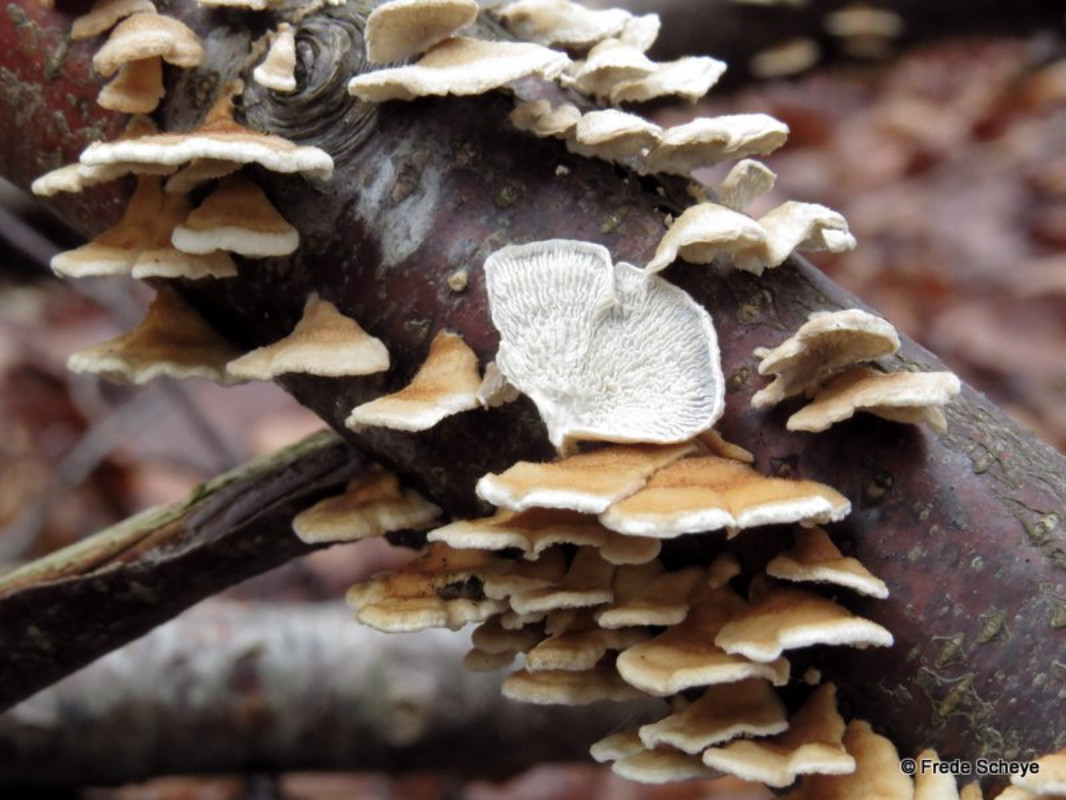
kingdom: Fungi
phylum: Basidiomycota
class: Agaricomycetes
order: Amylocorticiales
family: Amylocorticiaceae
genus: Plicaturopsis
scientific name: Plicaturopsis crispa
